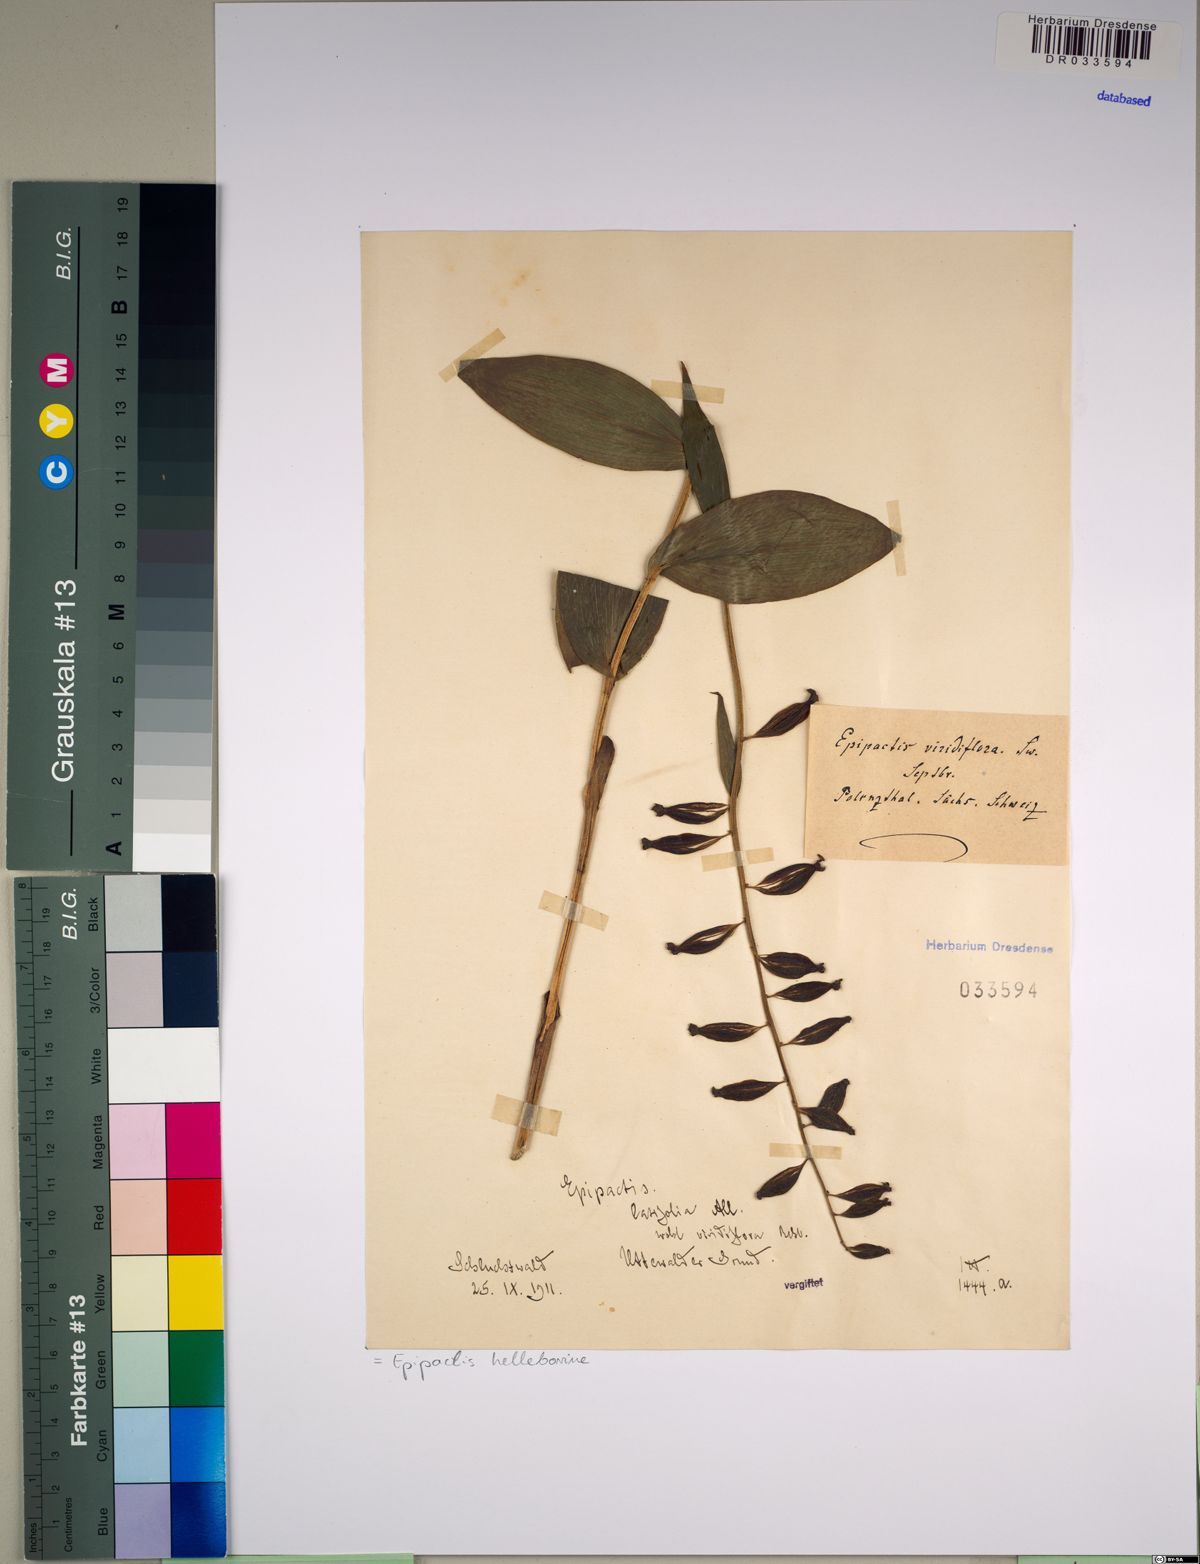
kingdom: Plantae
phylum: Tracheophyta
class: Liliopsida
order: Asparagales
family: Orchidaceae
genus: Epipactis
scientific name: Epipactis helleborine
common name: Broad-leaved helleborine
